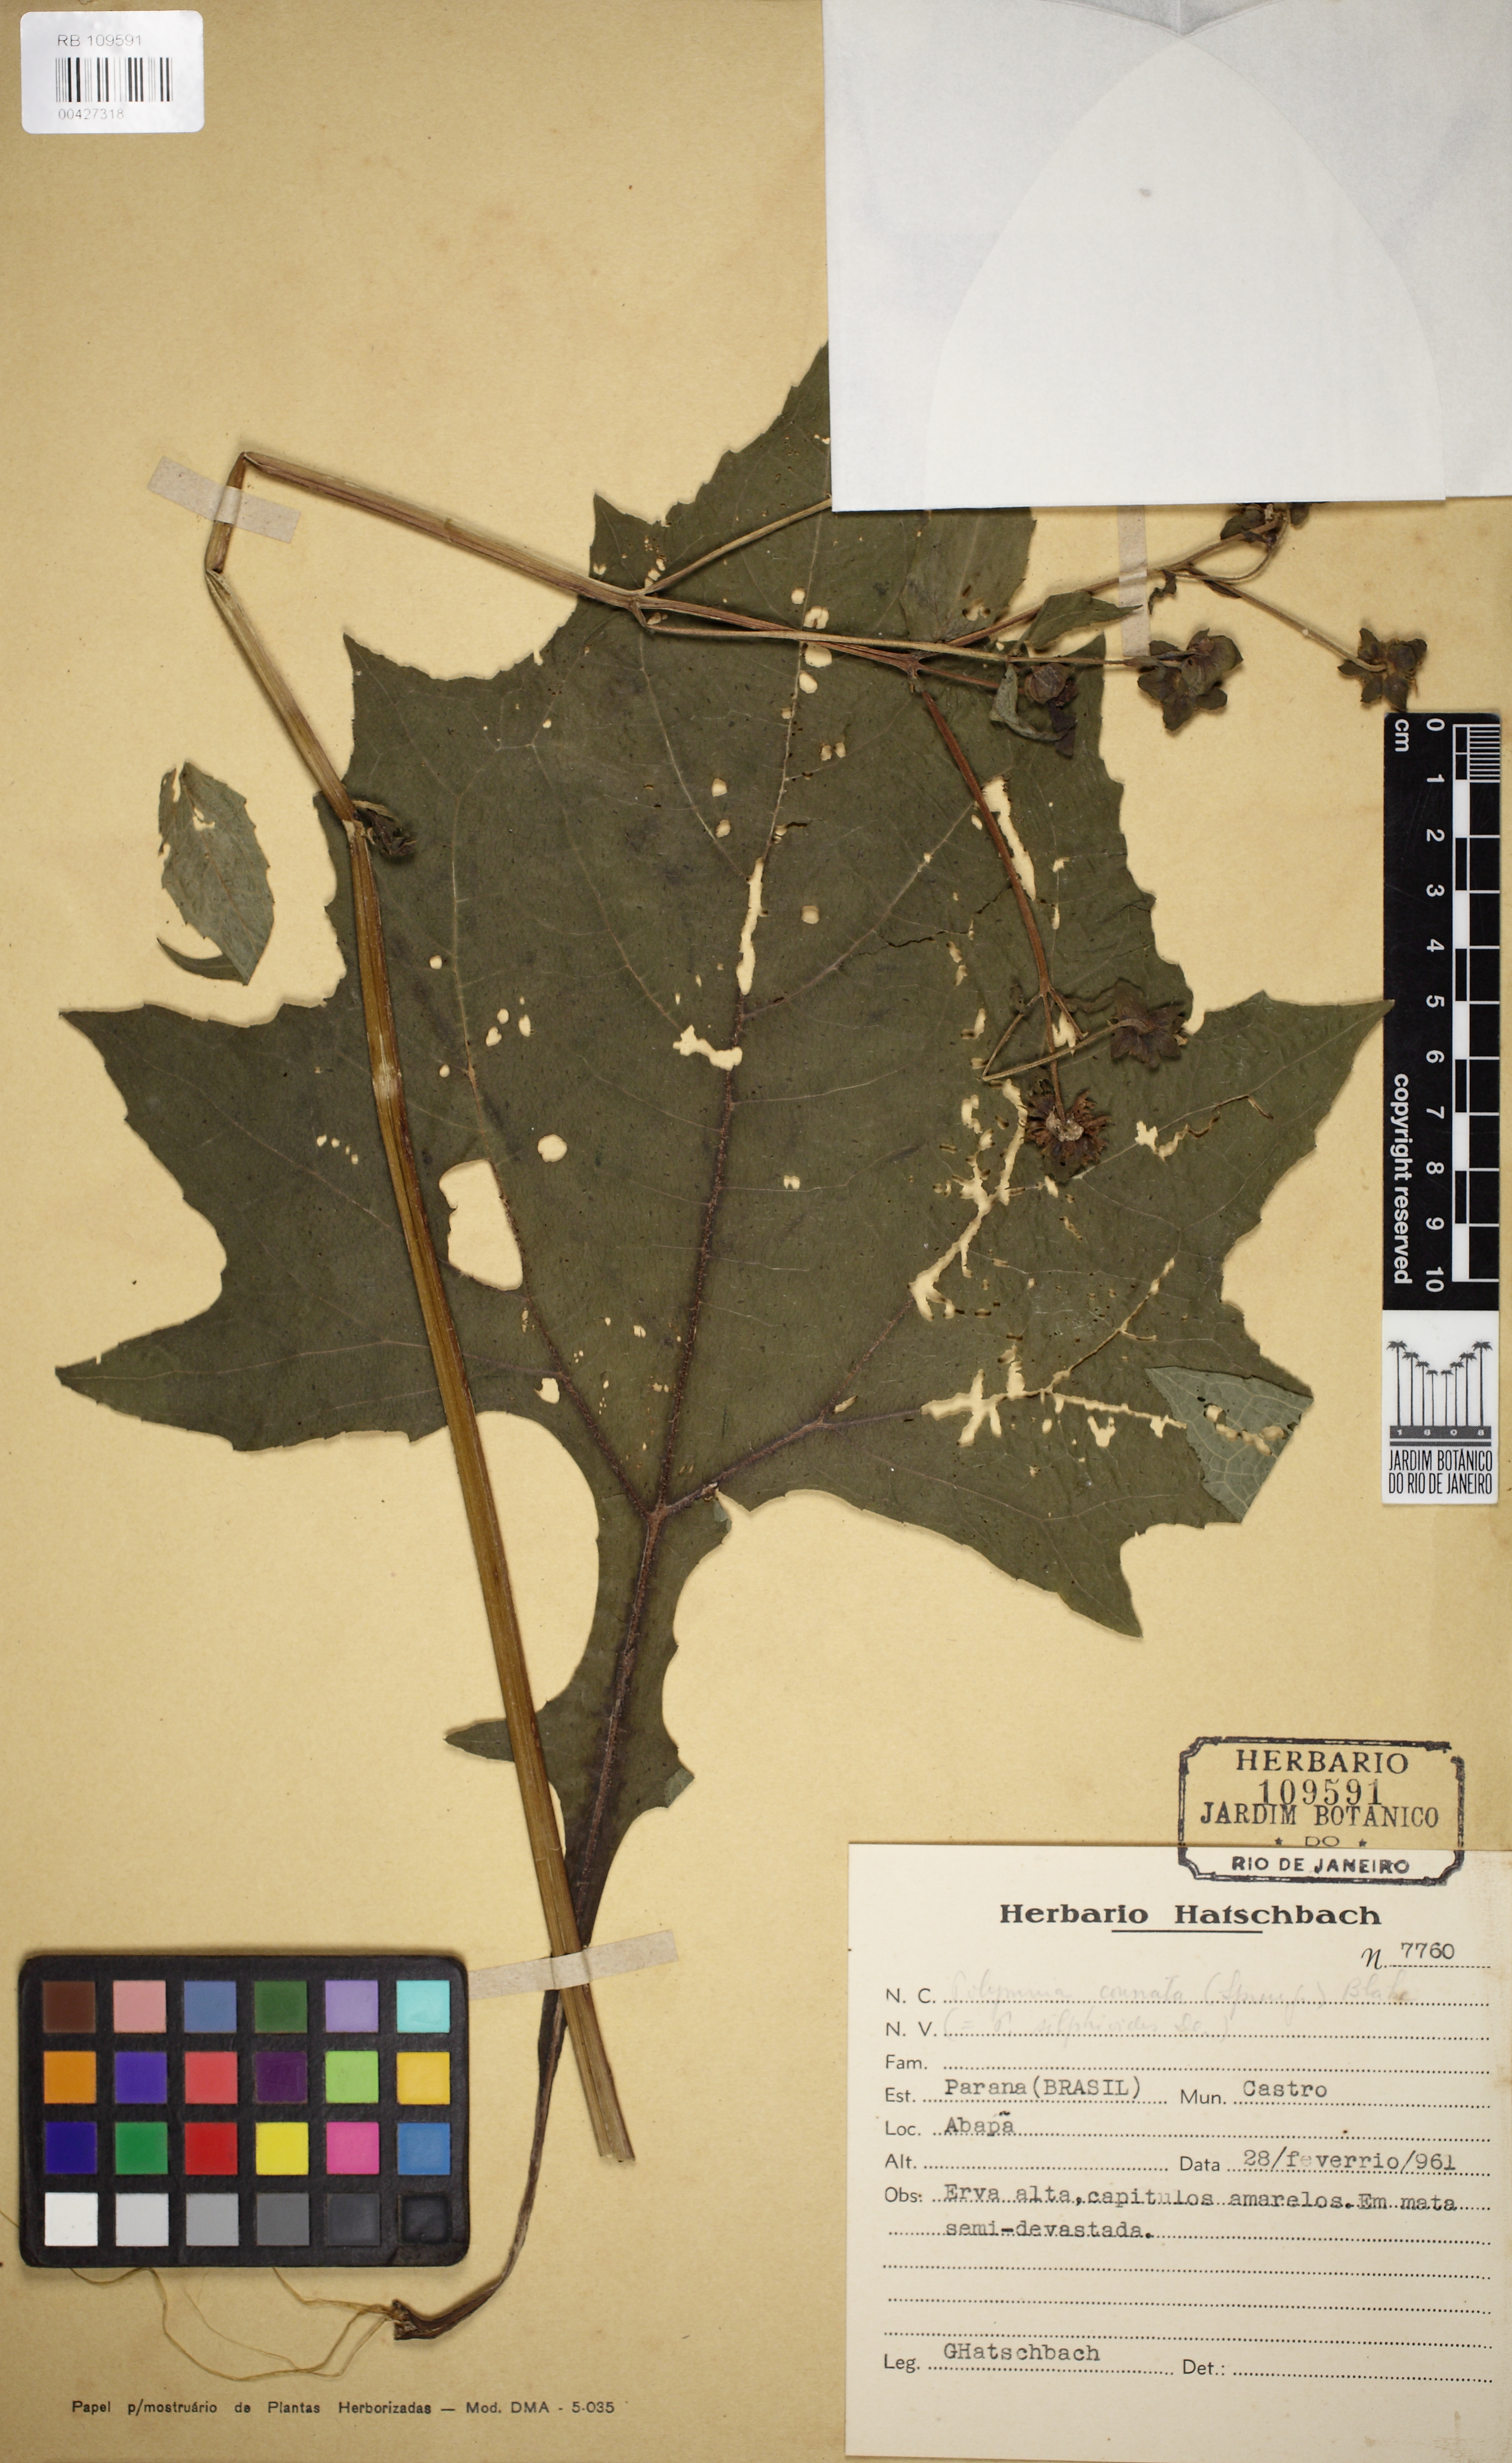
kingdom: Plantae
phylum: Tracheophyta
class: Magnoliopsida
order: Asterales
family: Asteraceae
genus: Smallanthus
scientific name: Smallanthus connatus
